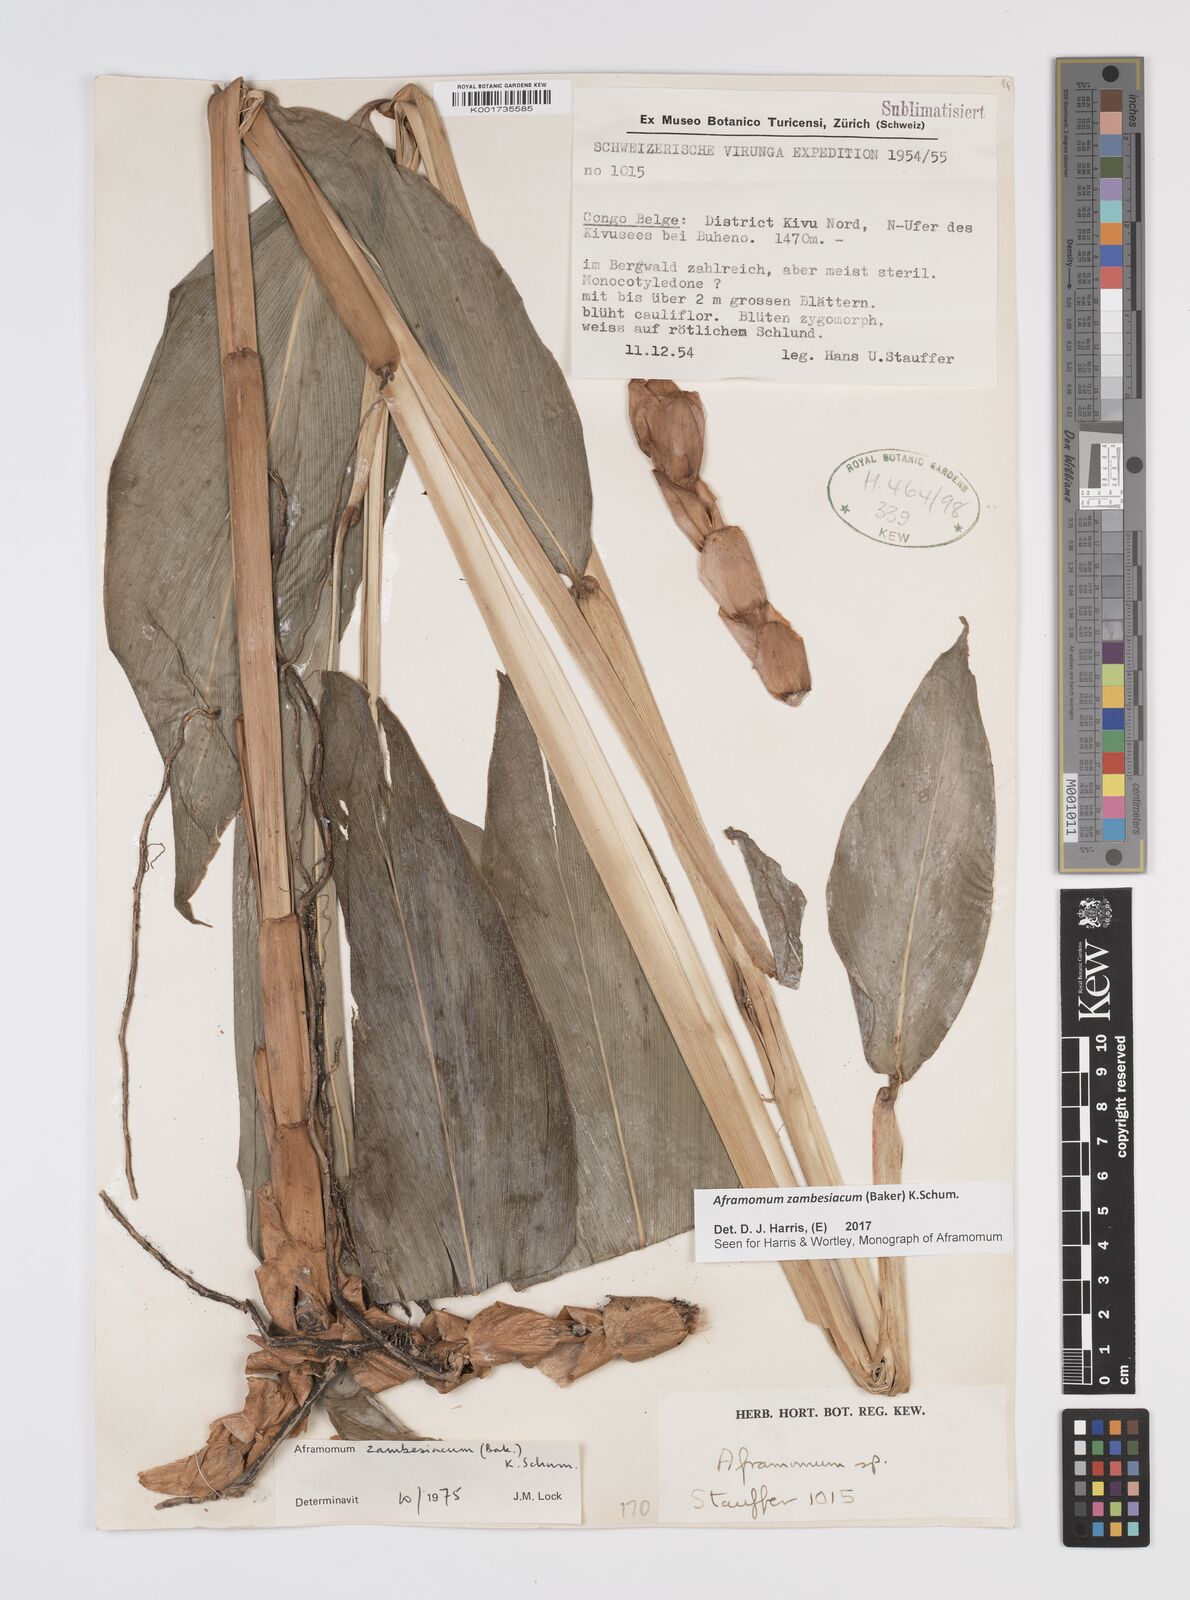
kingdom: Plantae
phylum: Tracheophyta
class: Liliopsida
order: Zingiberales
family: Zingiberaceae
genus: Aframomum
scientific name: Aframomum zambesiacum
